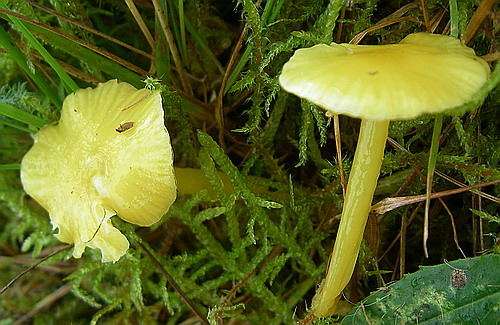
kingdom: Fungi
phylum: Basidiomycota
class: Agaricomycetes
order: Agaricales
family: Hygrophoraceae
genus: Hygrocybe
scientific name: Hygrocybe glutinipes
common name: slimstokket vokshat
